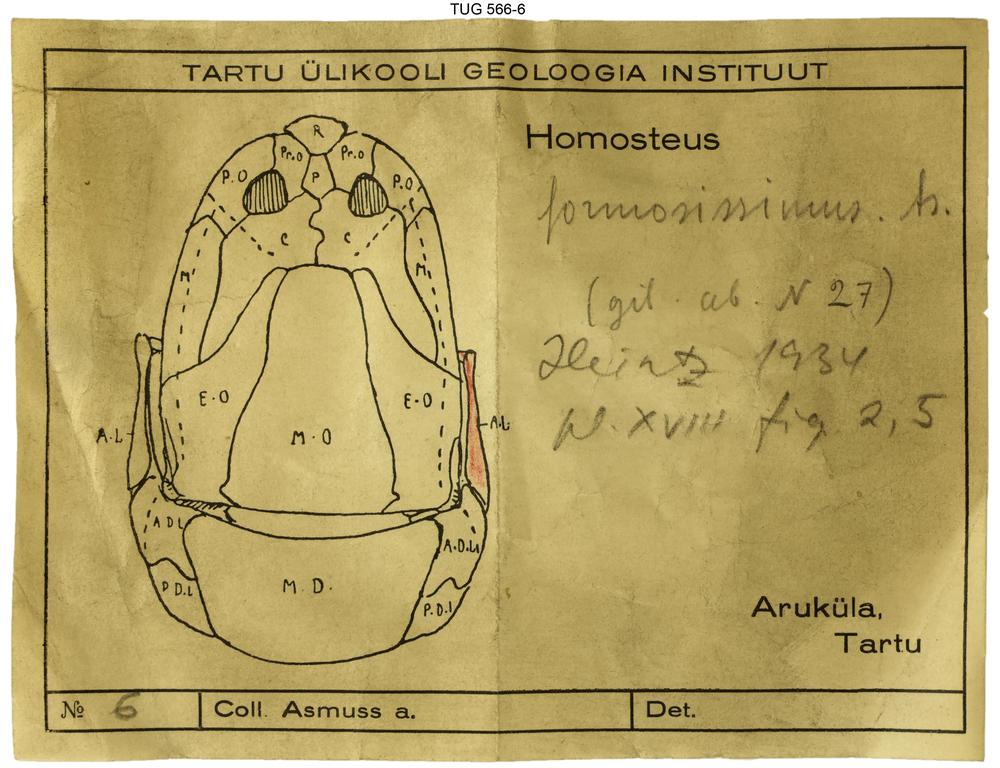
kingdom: Animalia
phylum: Chordata
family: Homostiidae
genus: Homostius
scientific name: Homostius
